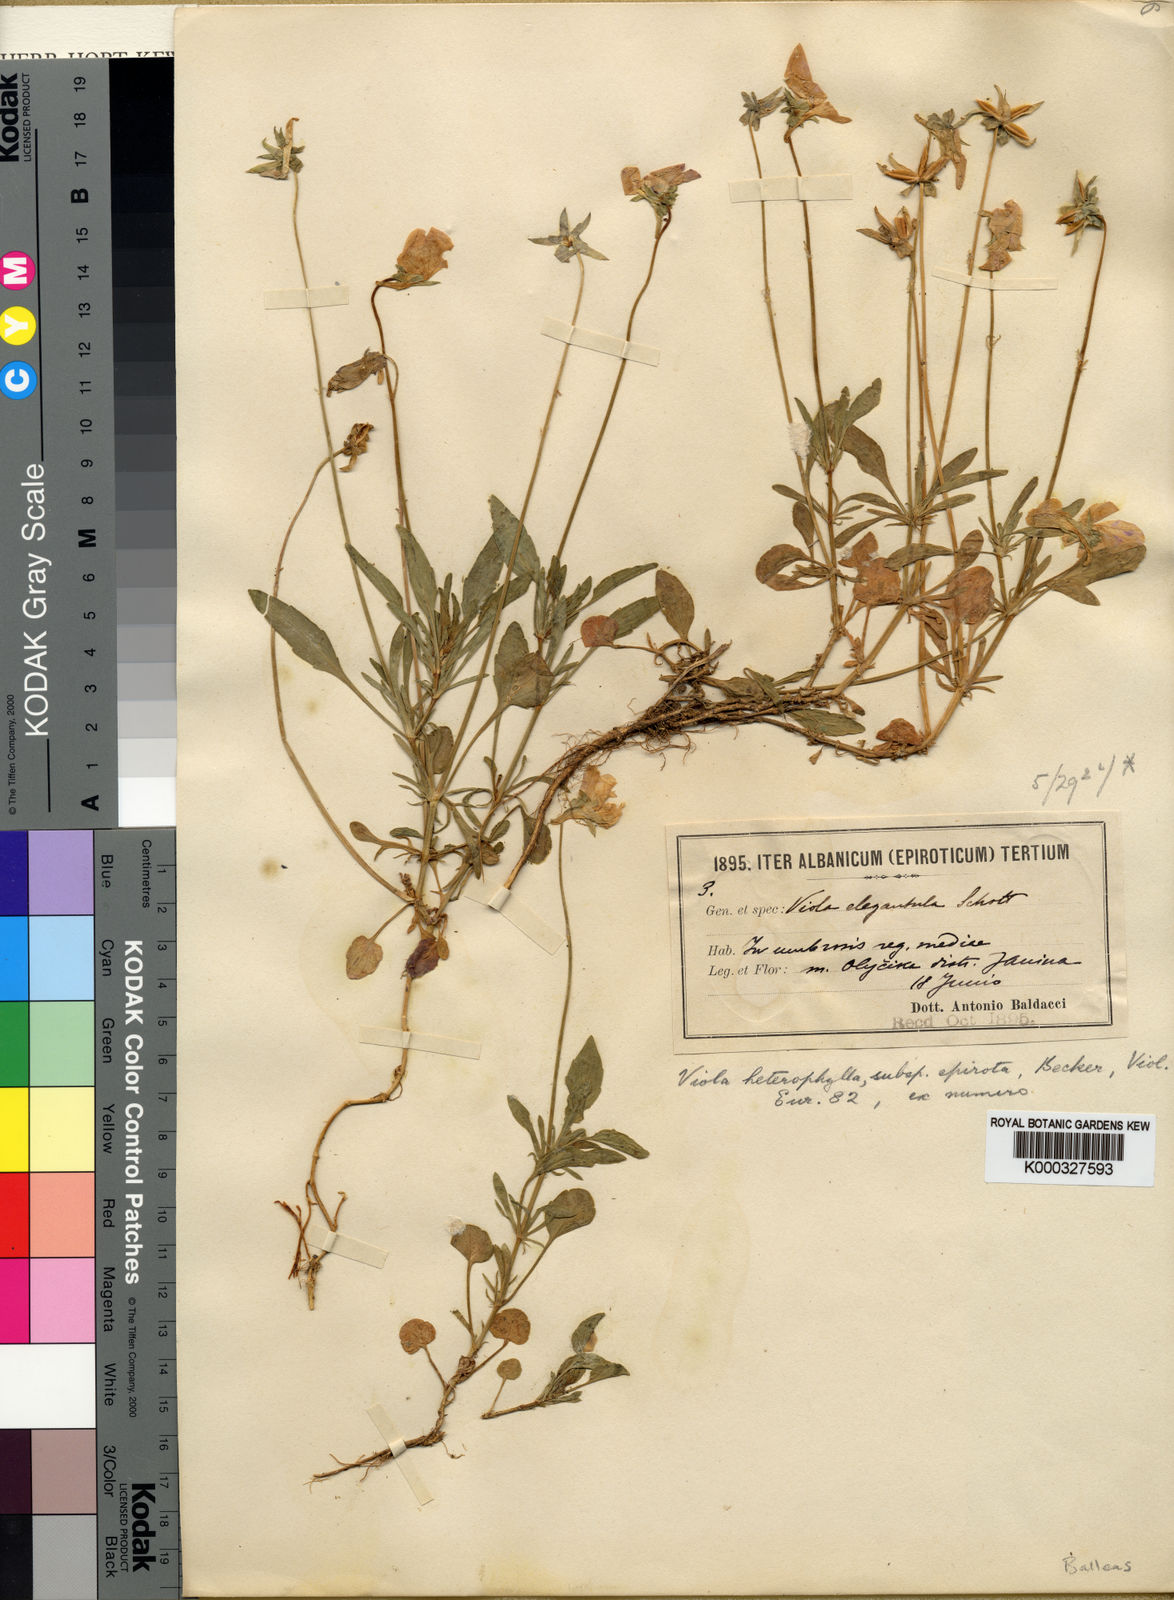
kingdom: Plantae
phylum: Tracheophyta
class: Magnoliopsida
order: Malpighiales
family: Violaceae
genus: Viola
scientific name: Viola
